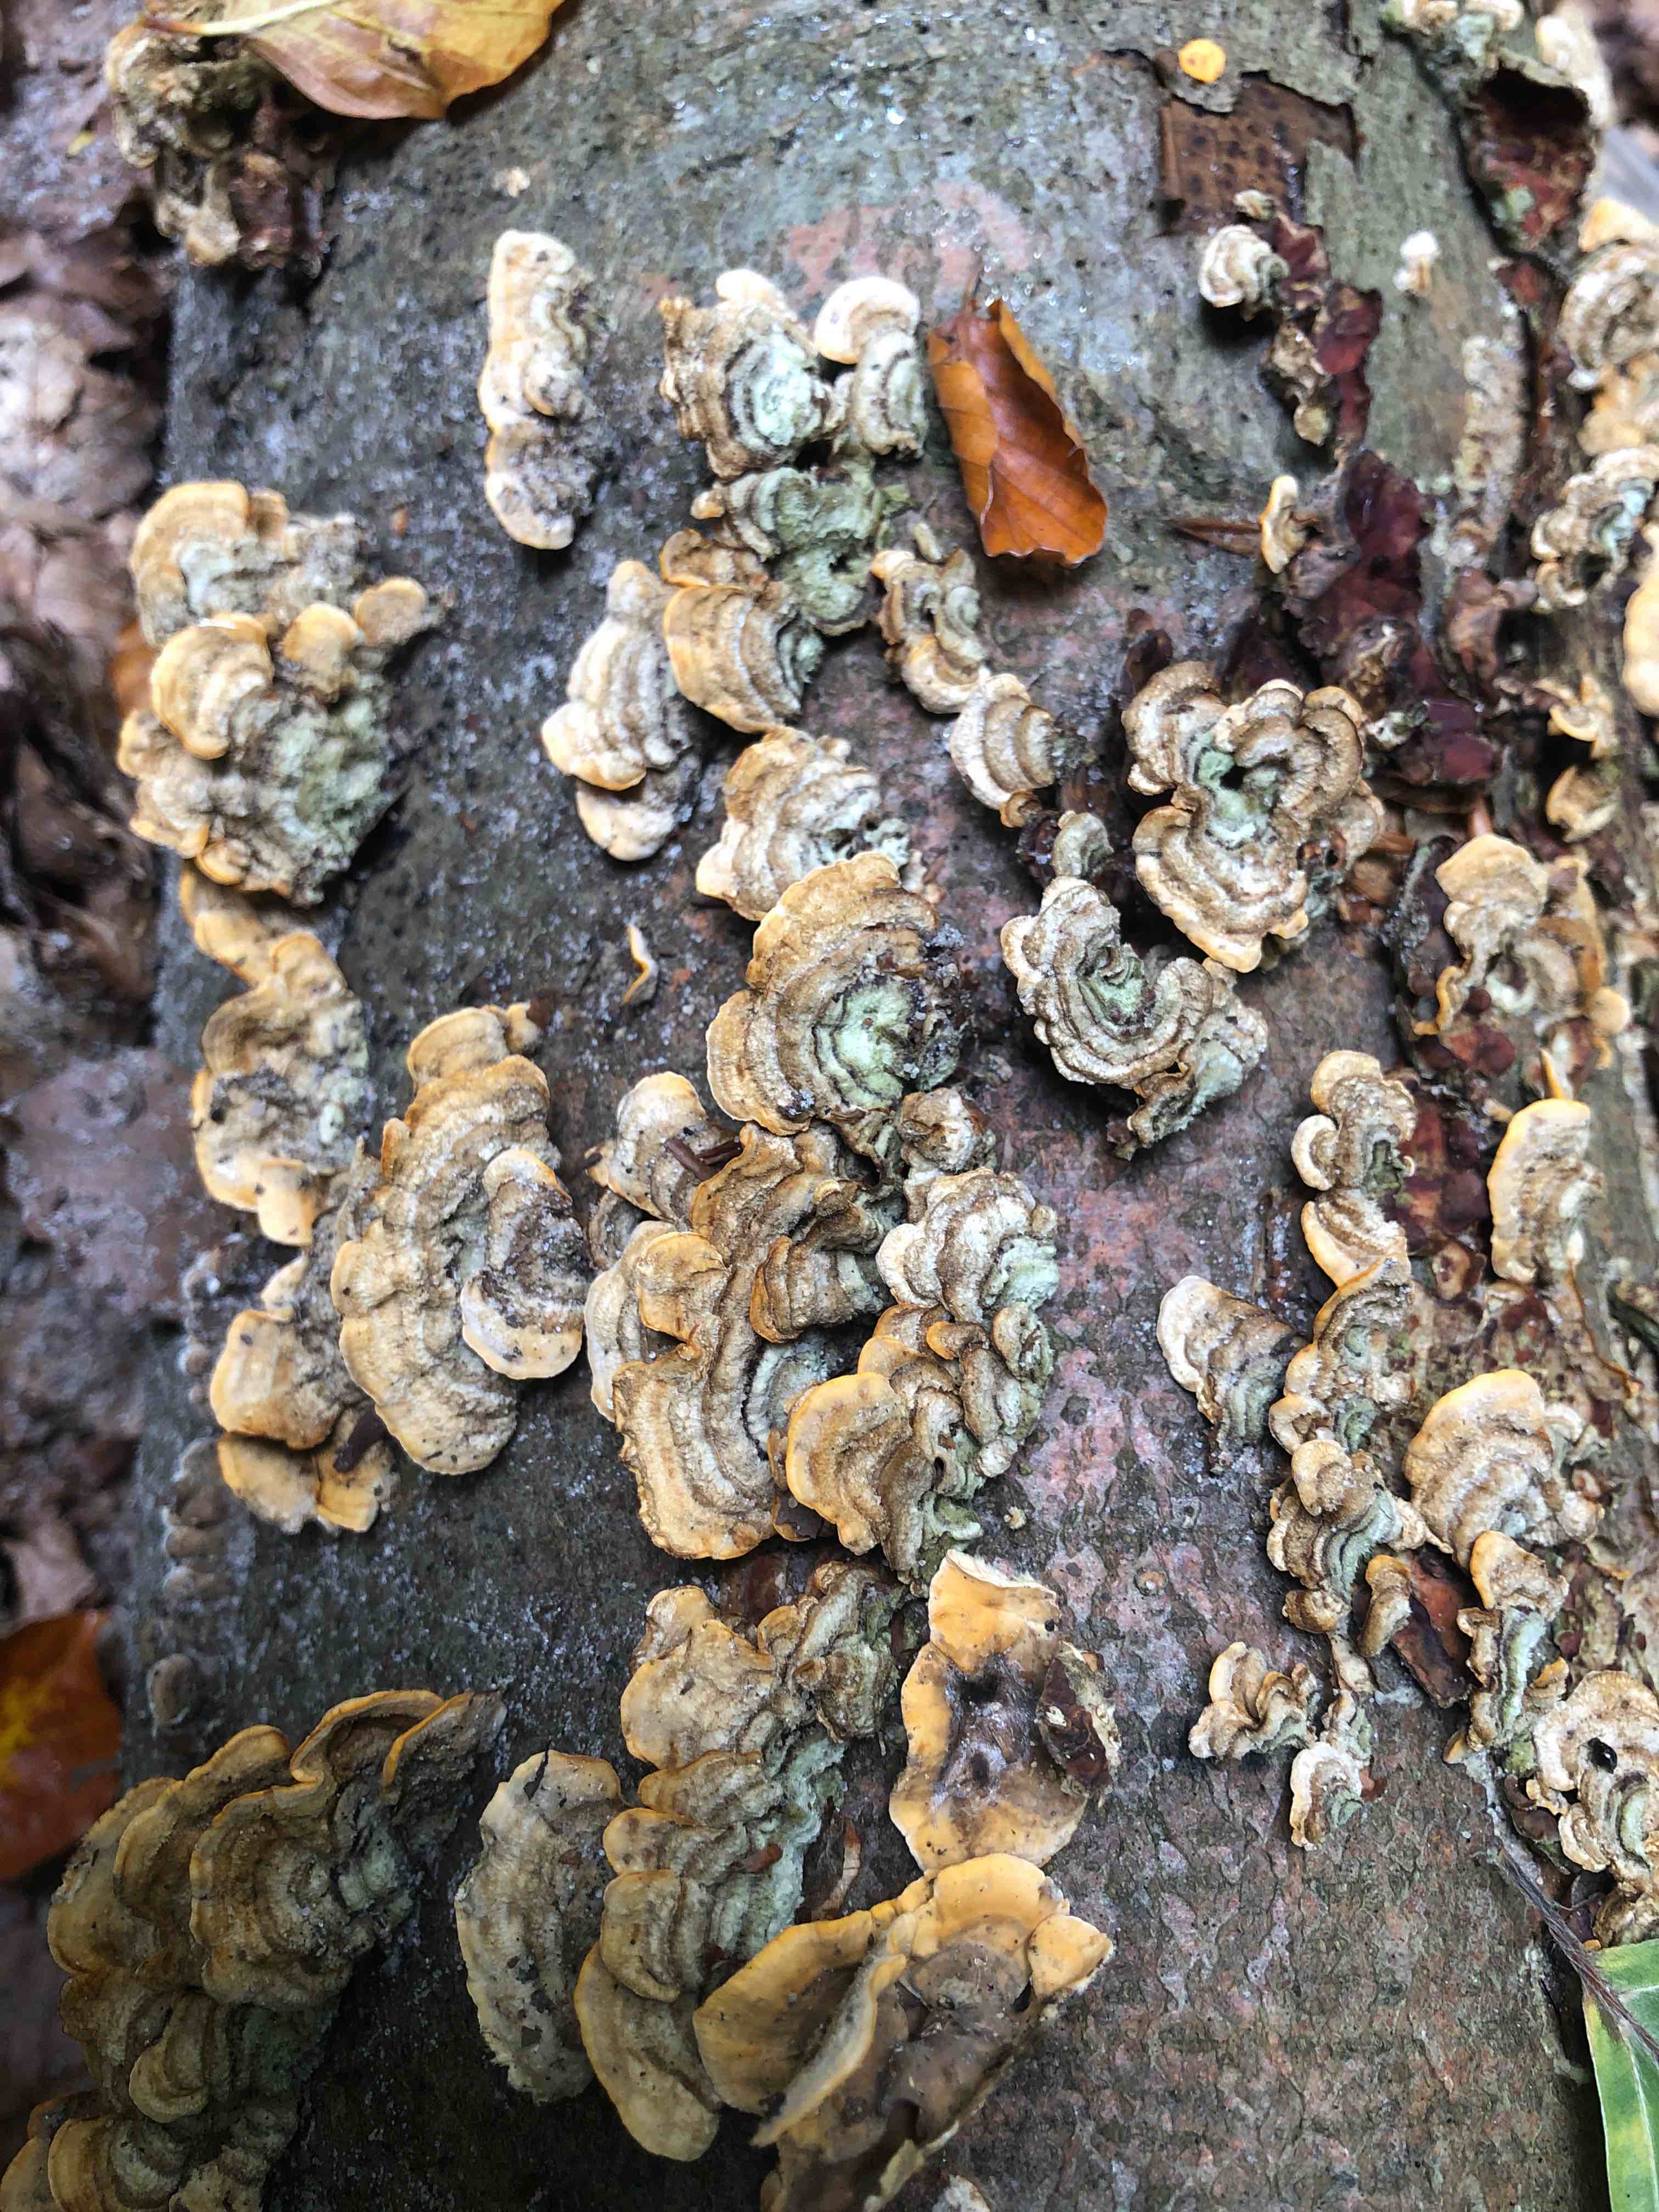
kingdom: Fungi
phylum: Basidiomycota
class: Agaricomycetes
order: Russulales
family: Stereaceae
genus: Stereum
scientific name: Stereum hirsutum
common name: håret lædersvamp
